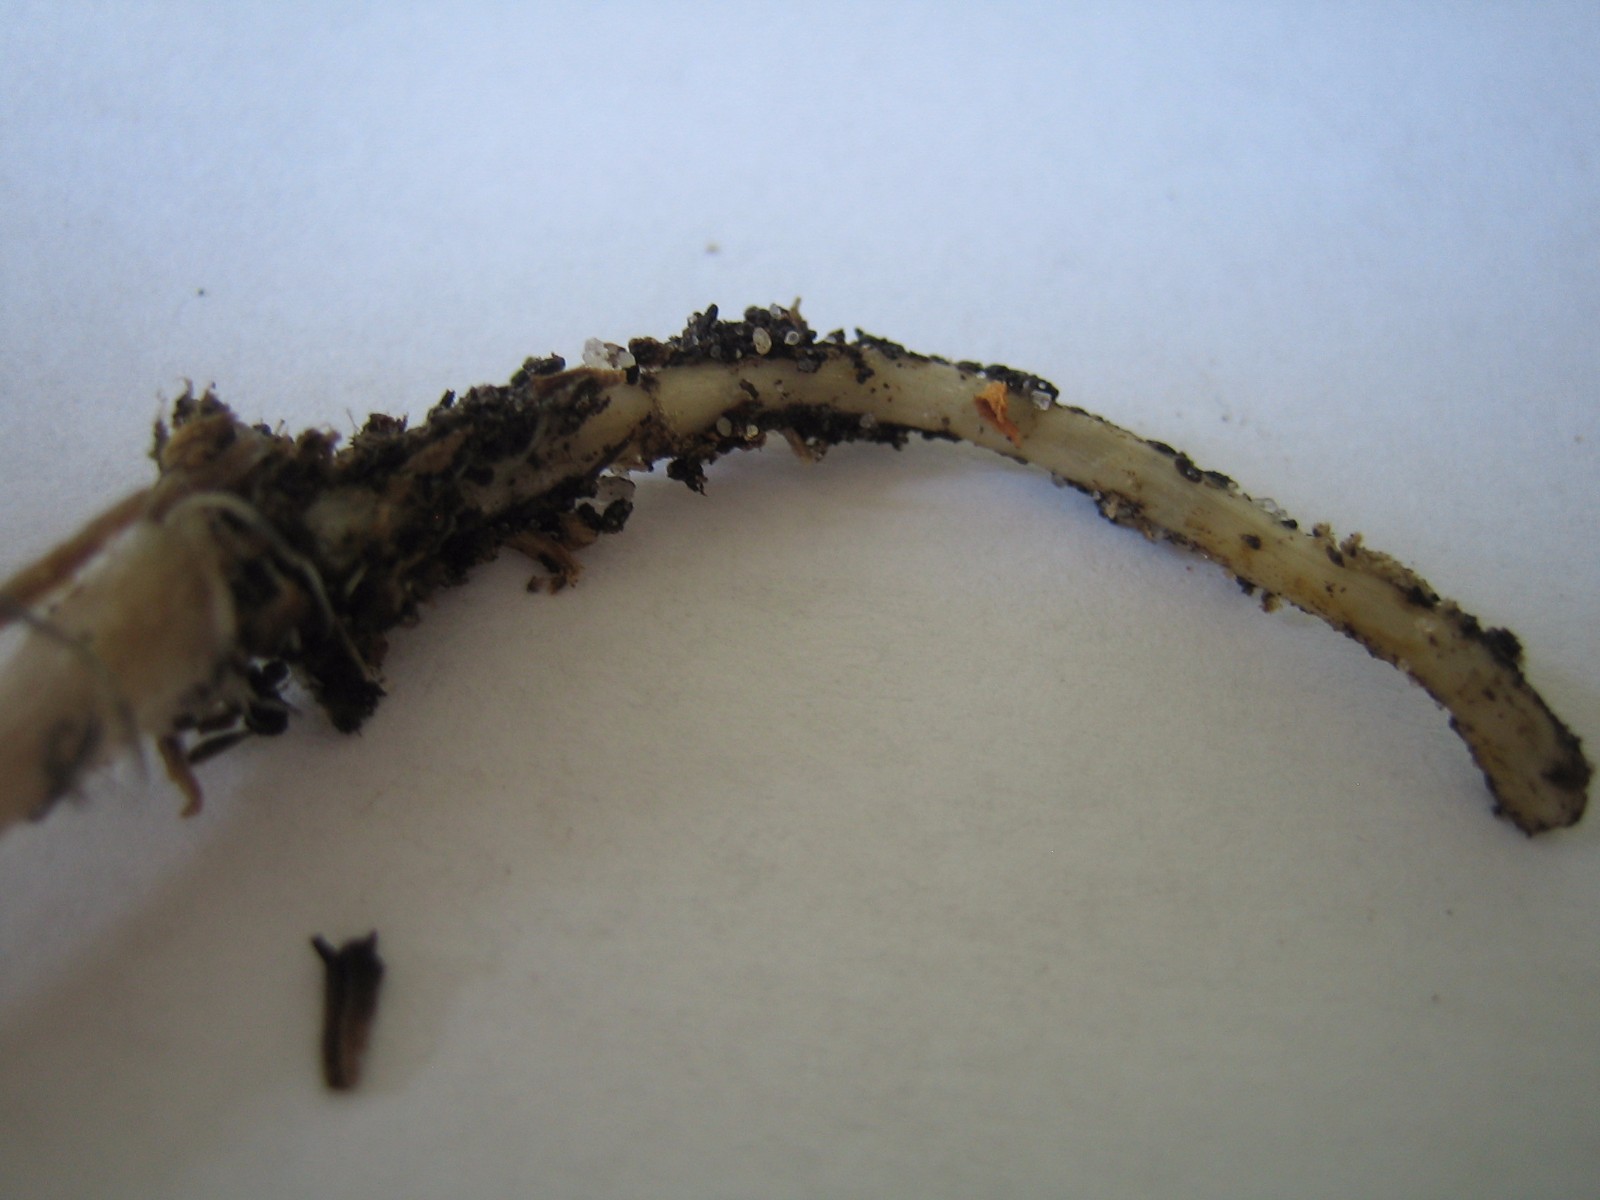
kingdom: Fungi
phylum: Basidiomycota
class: Agaricomycetes
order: Agaricales
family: Psathyrellaceae
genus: Psathyrella
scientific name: Psathyrella
